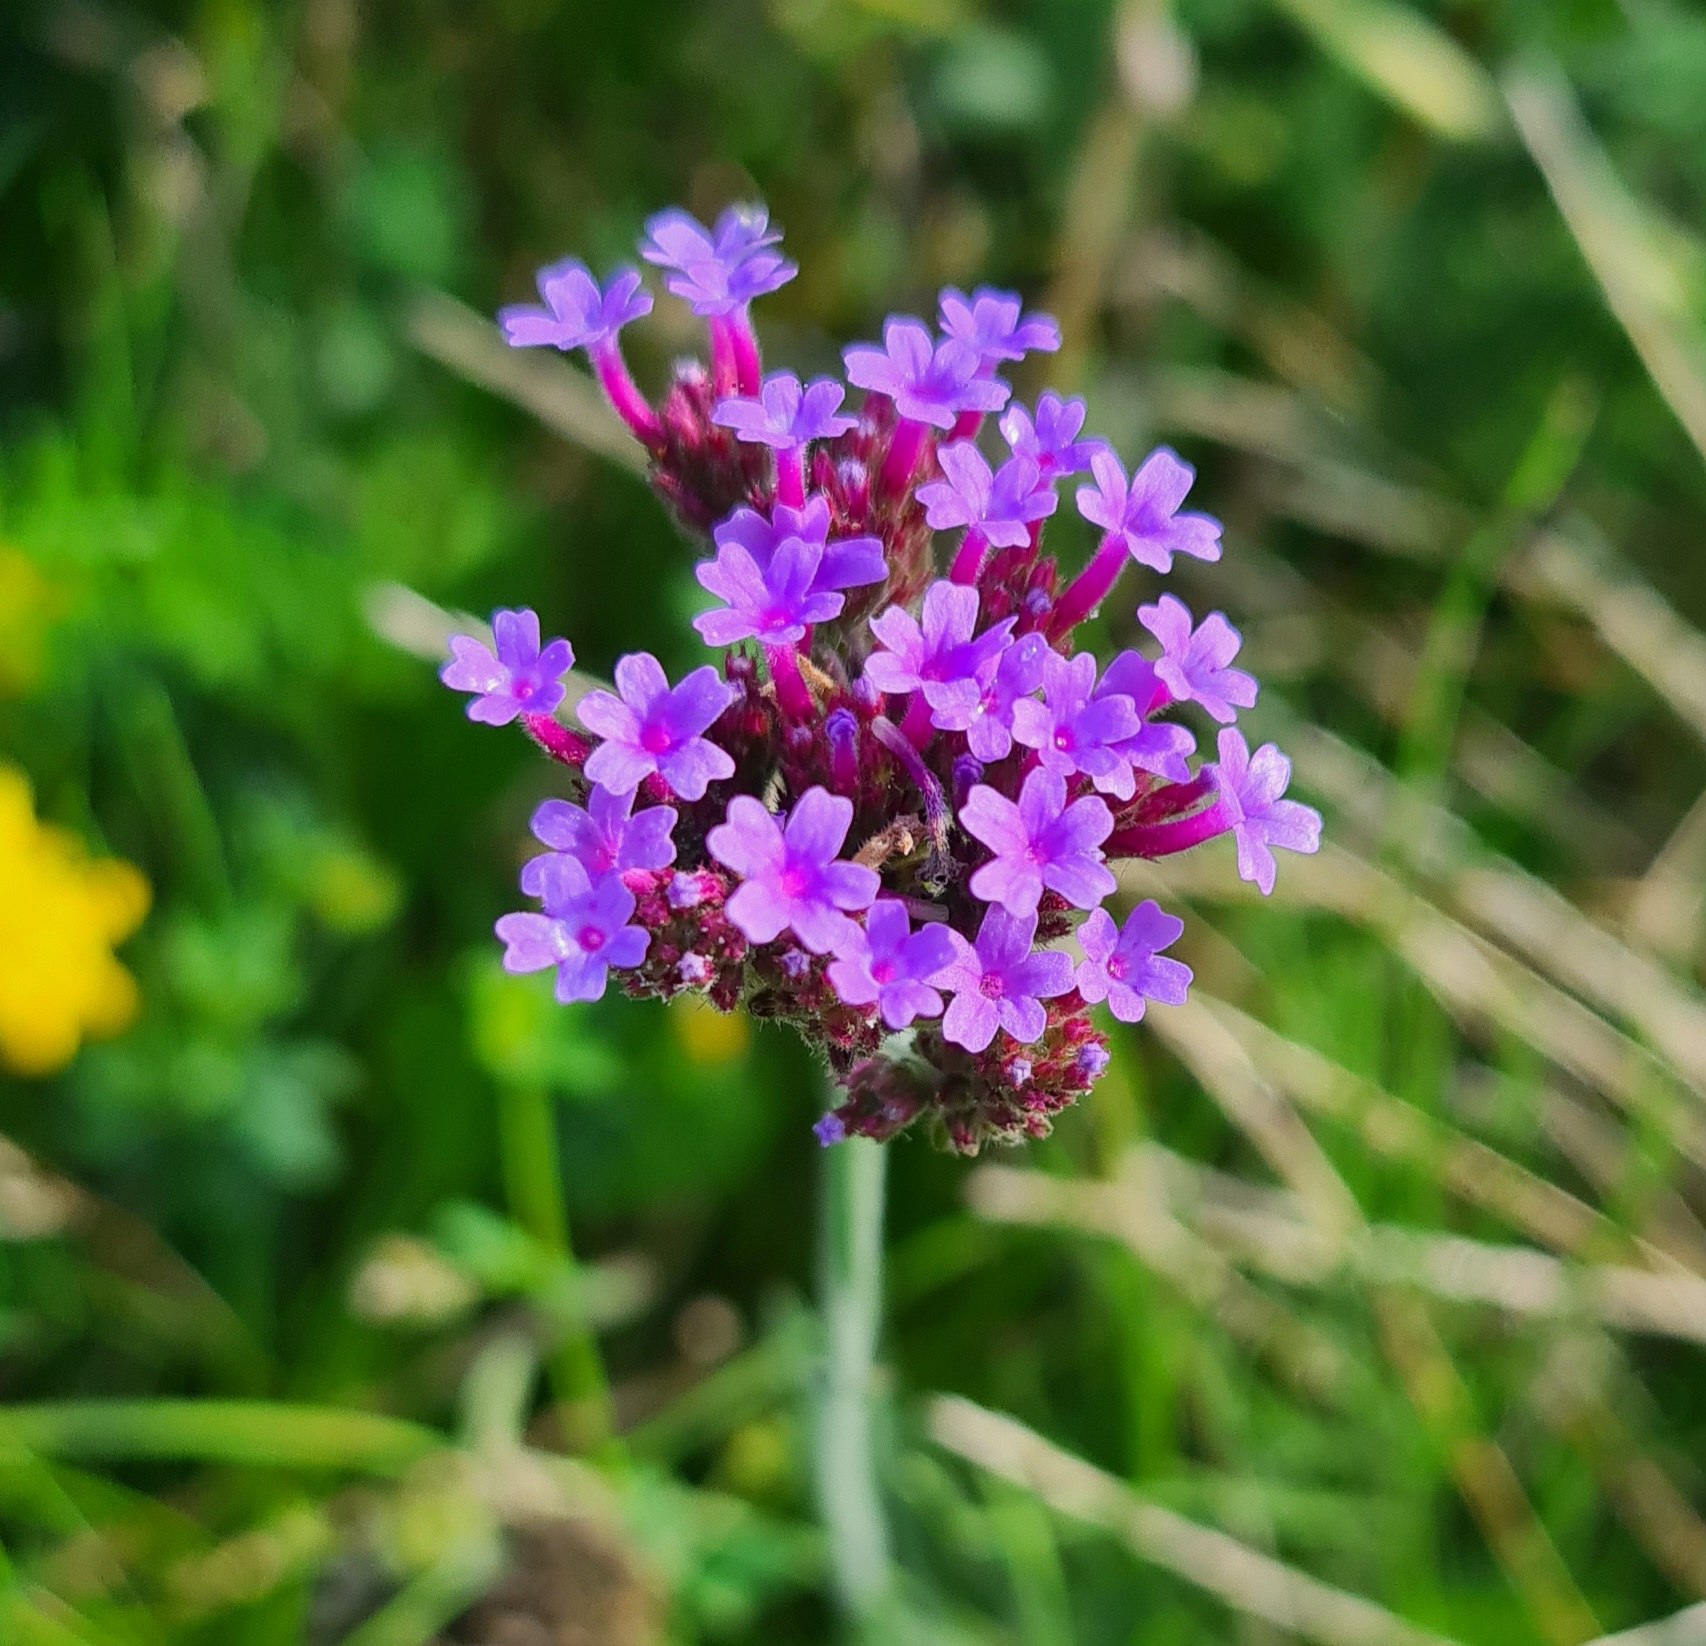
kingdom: Plantae
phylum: Tracheophyta
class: Magnoliopsida
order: Lamiales
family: Verbenaceae
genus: Verbena
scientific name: Verbena bonariensis
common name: Kæmpe-jernurt
